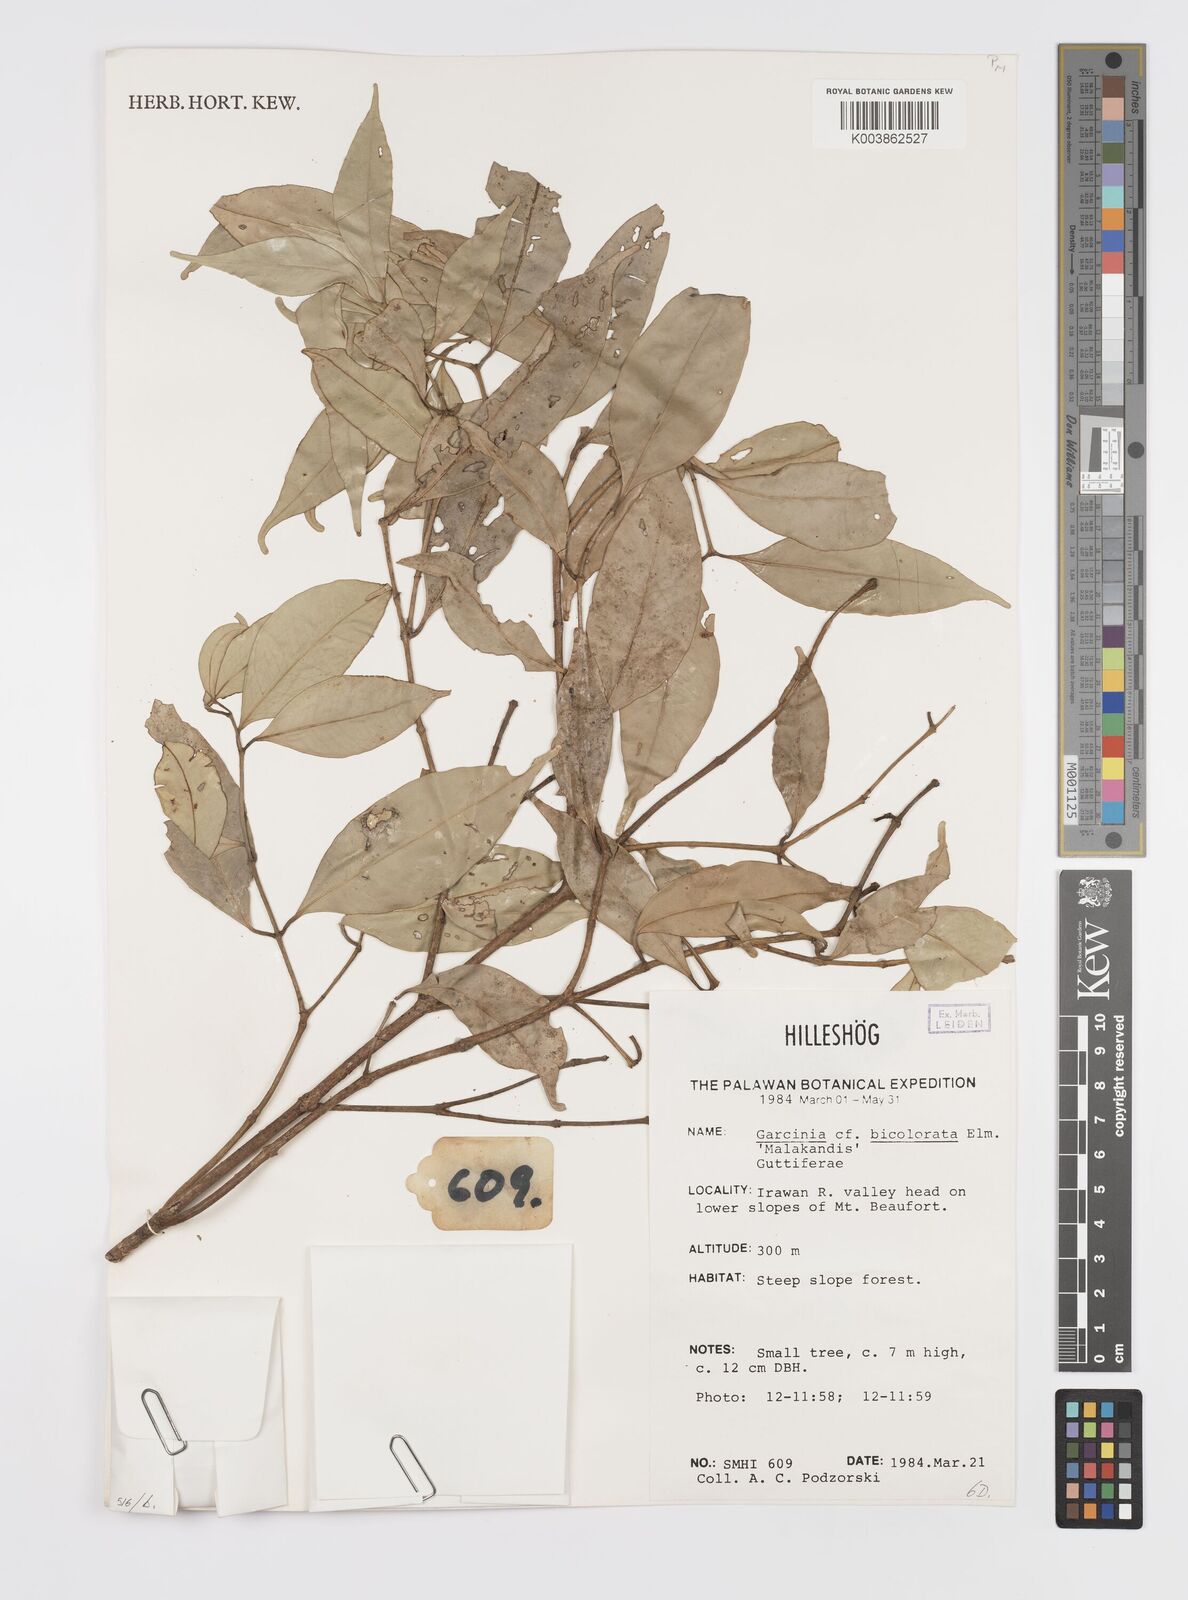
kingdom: Plantae
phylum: Tracheophyta
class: Magnoliopsida
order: Malpighiales
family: Clusiaceae
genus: Garcinia
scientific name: Garcinia bicolorata
